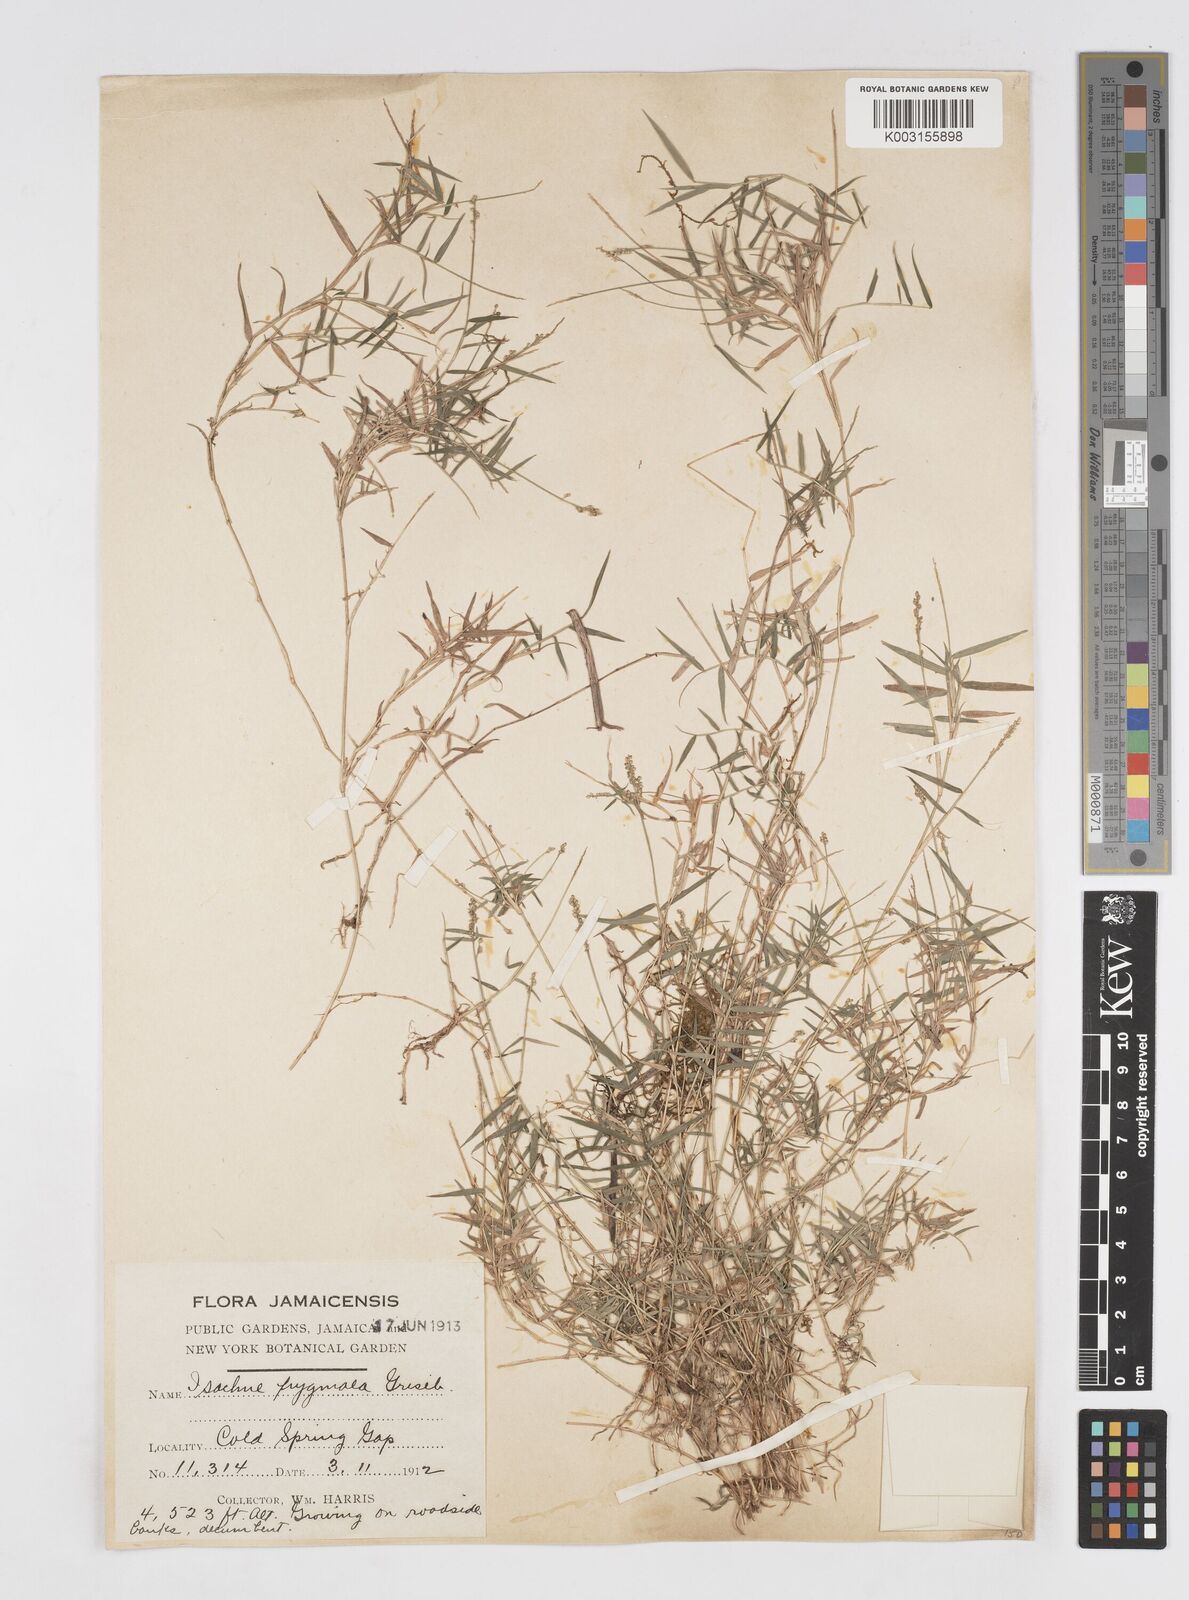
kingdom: Plantae
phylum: Tracheophyta
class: Liliopsida
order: Poales
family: Poaceae
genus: Isachne
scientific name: Isachne pygmaea
